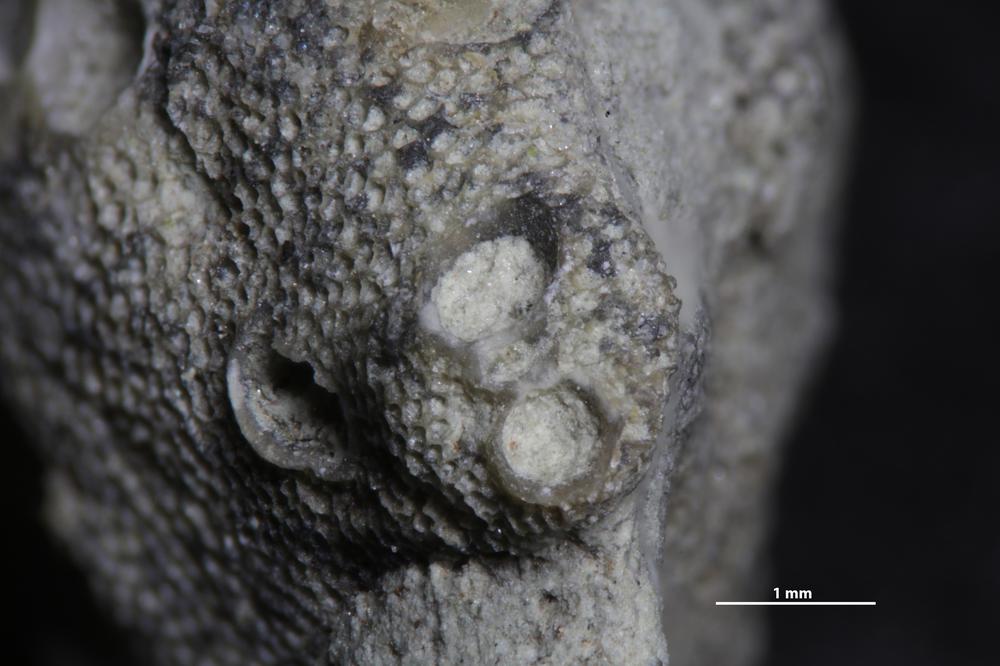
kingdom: Animalia
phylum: Cnidaria
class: Hydrozoa
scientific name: Hydrozoa
